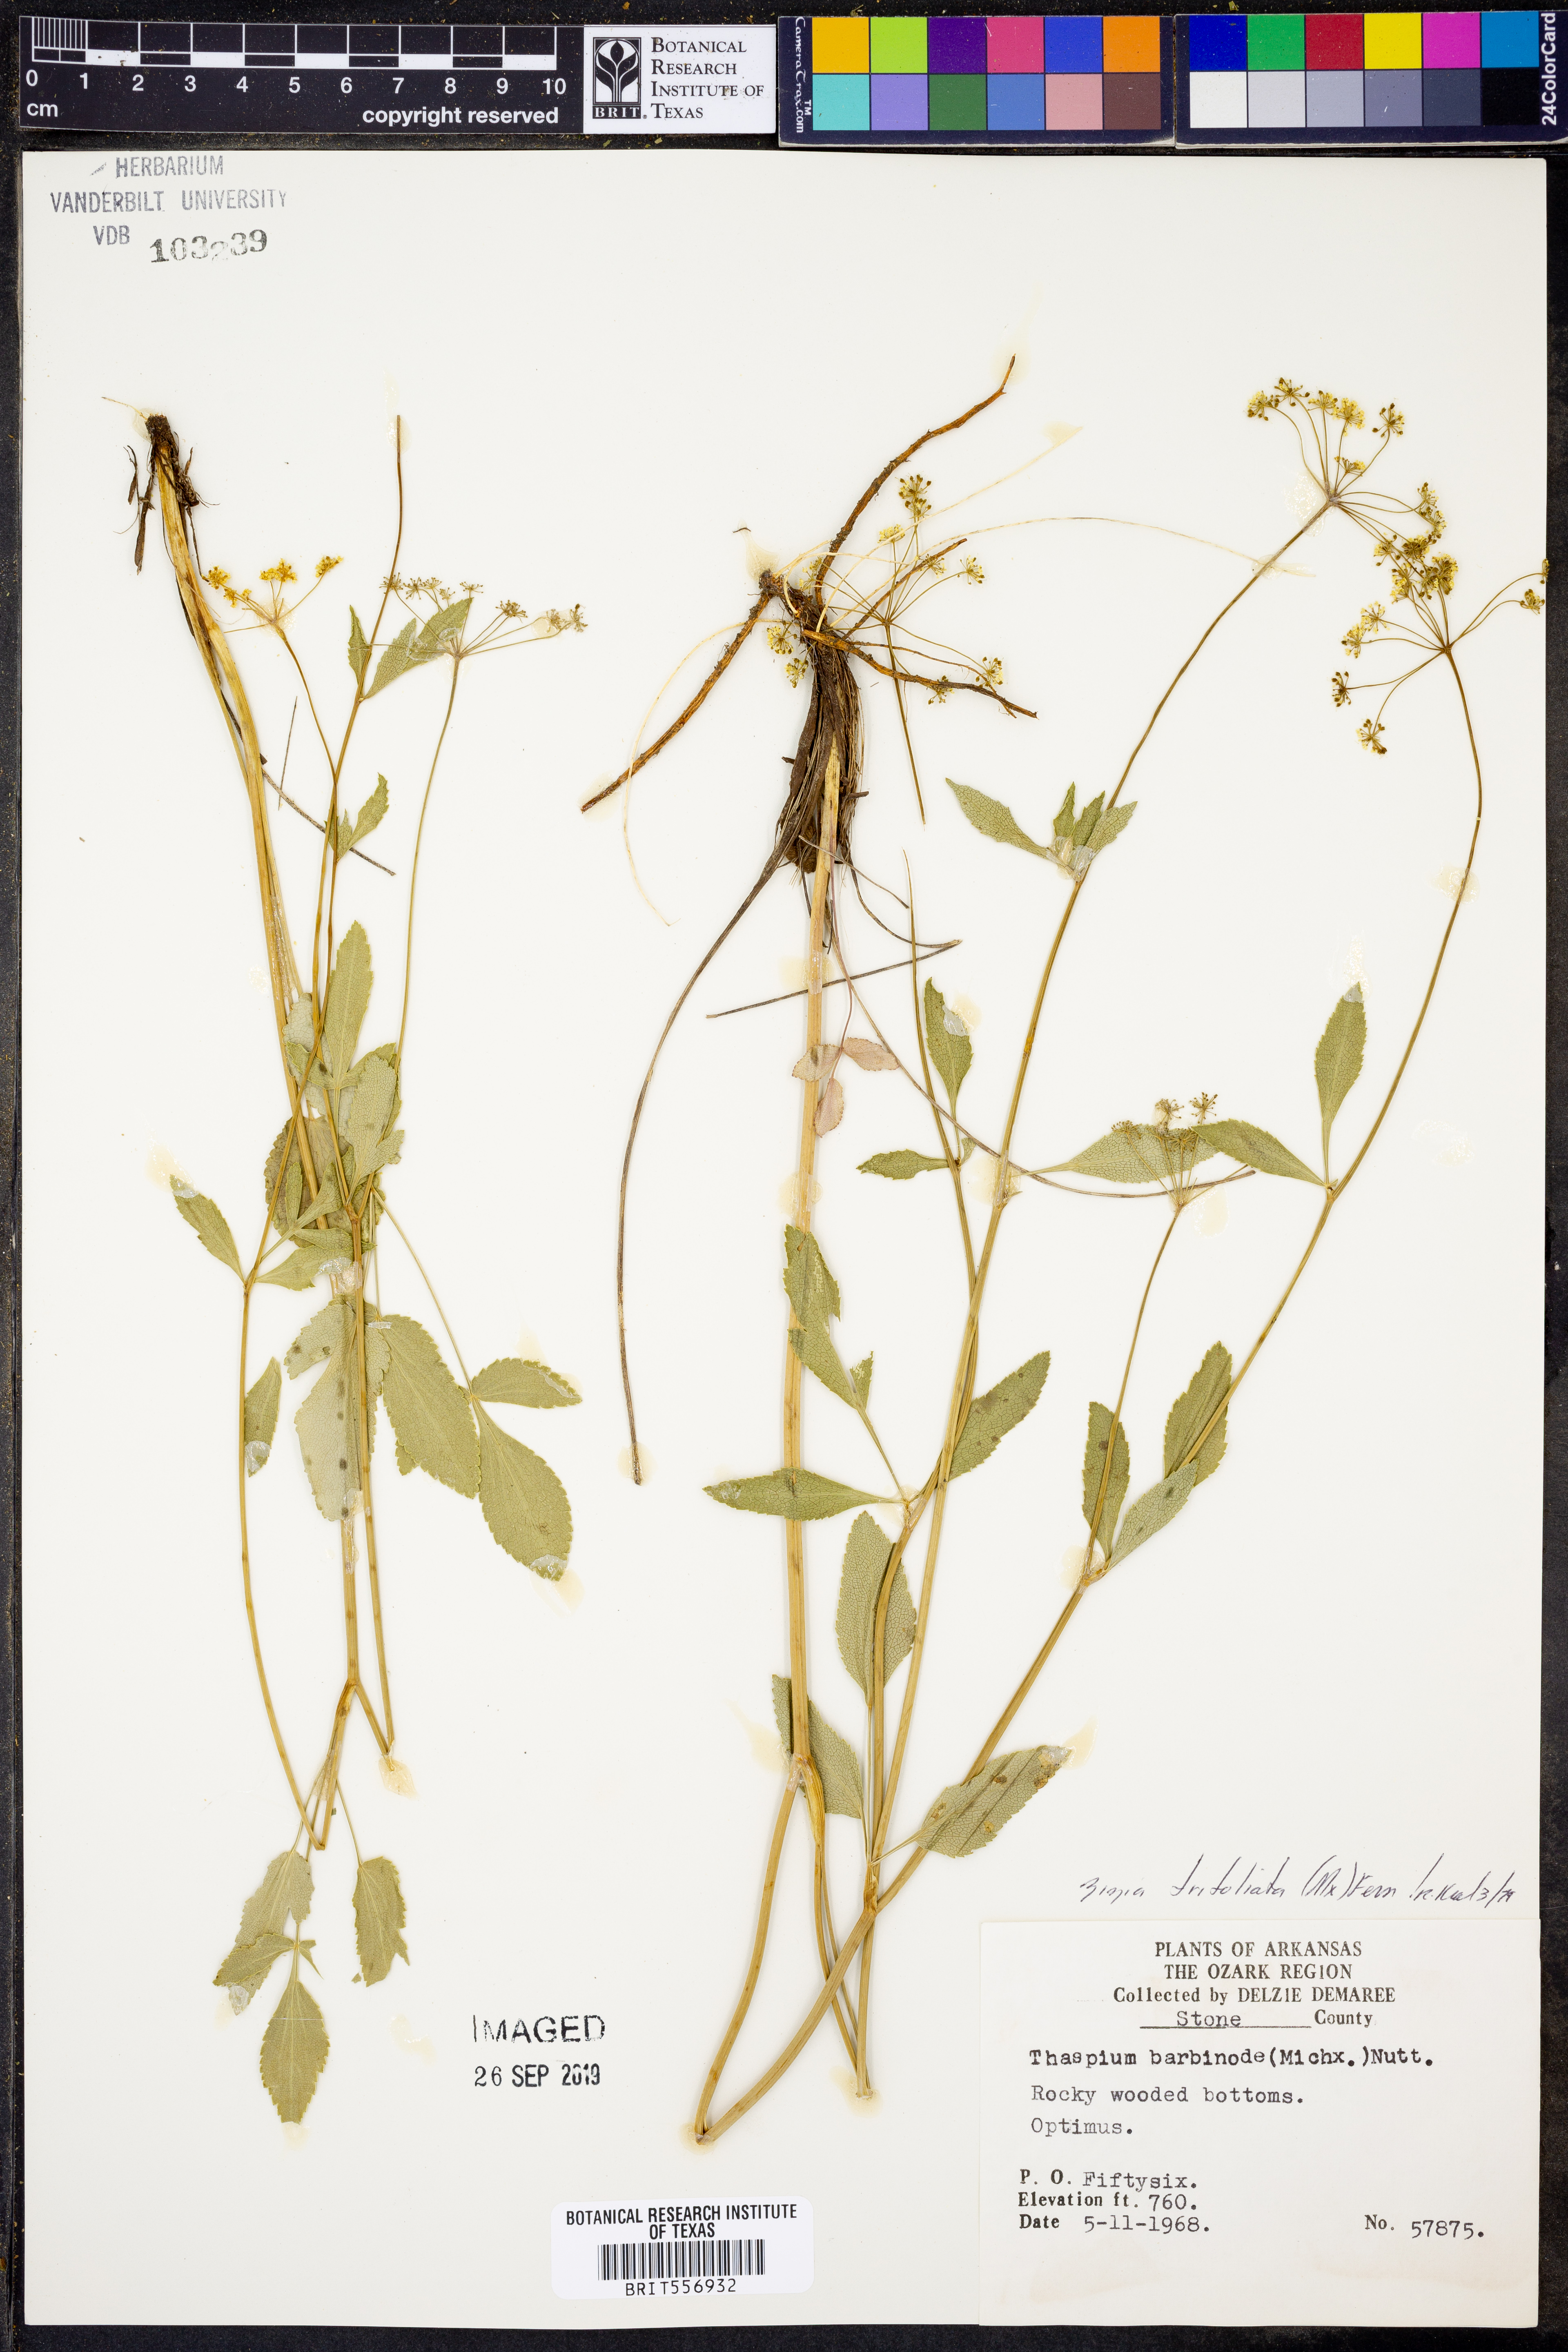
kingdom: Plantae
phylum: Tracheophyta
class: Magnoliopsida
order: Apiales
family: Apiaceae
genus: Zizia
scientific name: Zizia trifoliata
